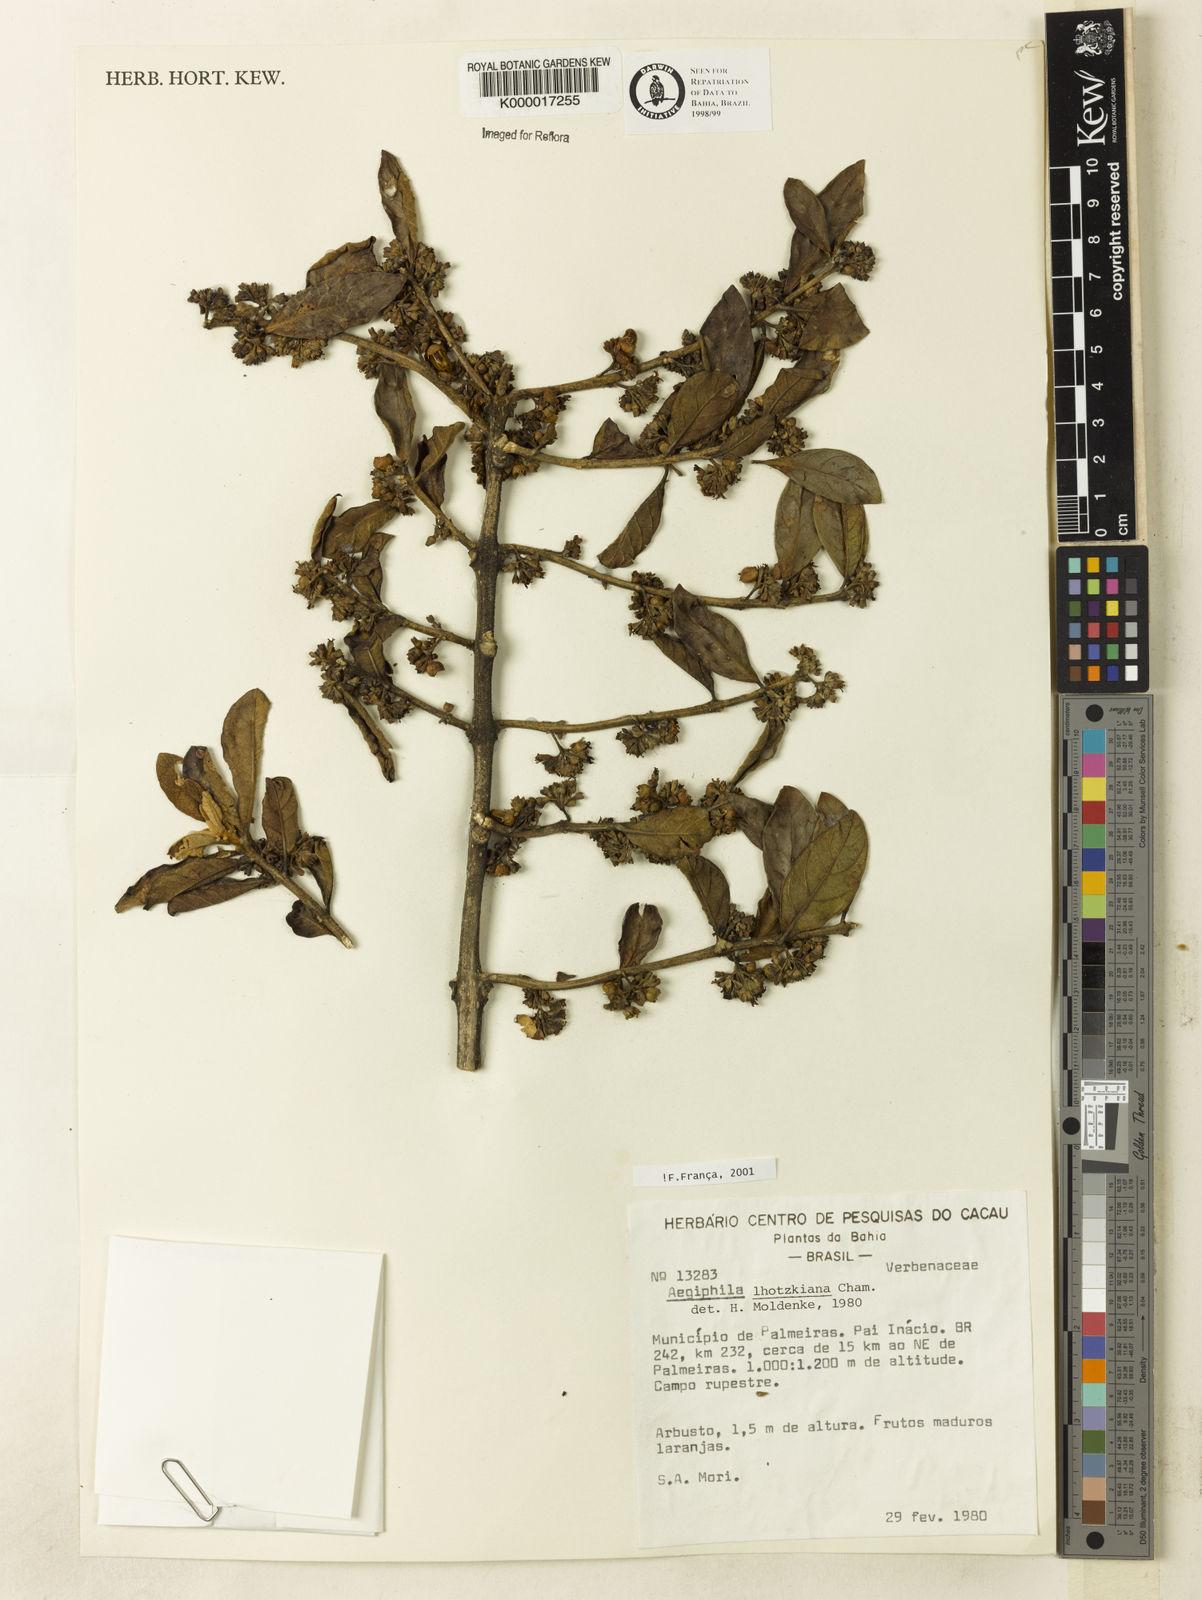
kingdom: Plantae
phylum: Tracheophyta
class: Magnoliopsida
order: Lamiales
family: Lamiaceae
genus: Aegiphila
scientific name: Aegiphila verticillata
